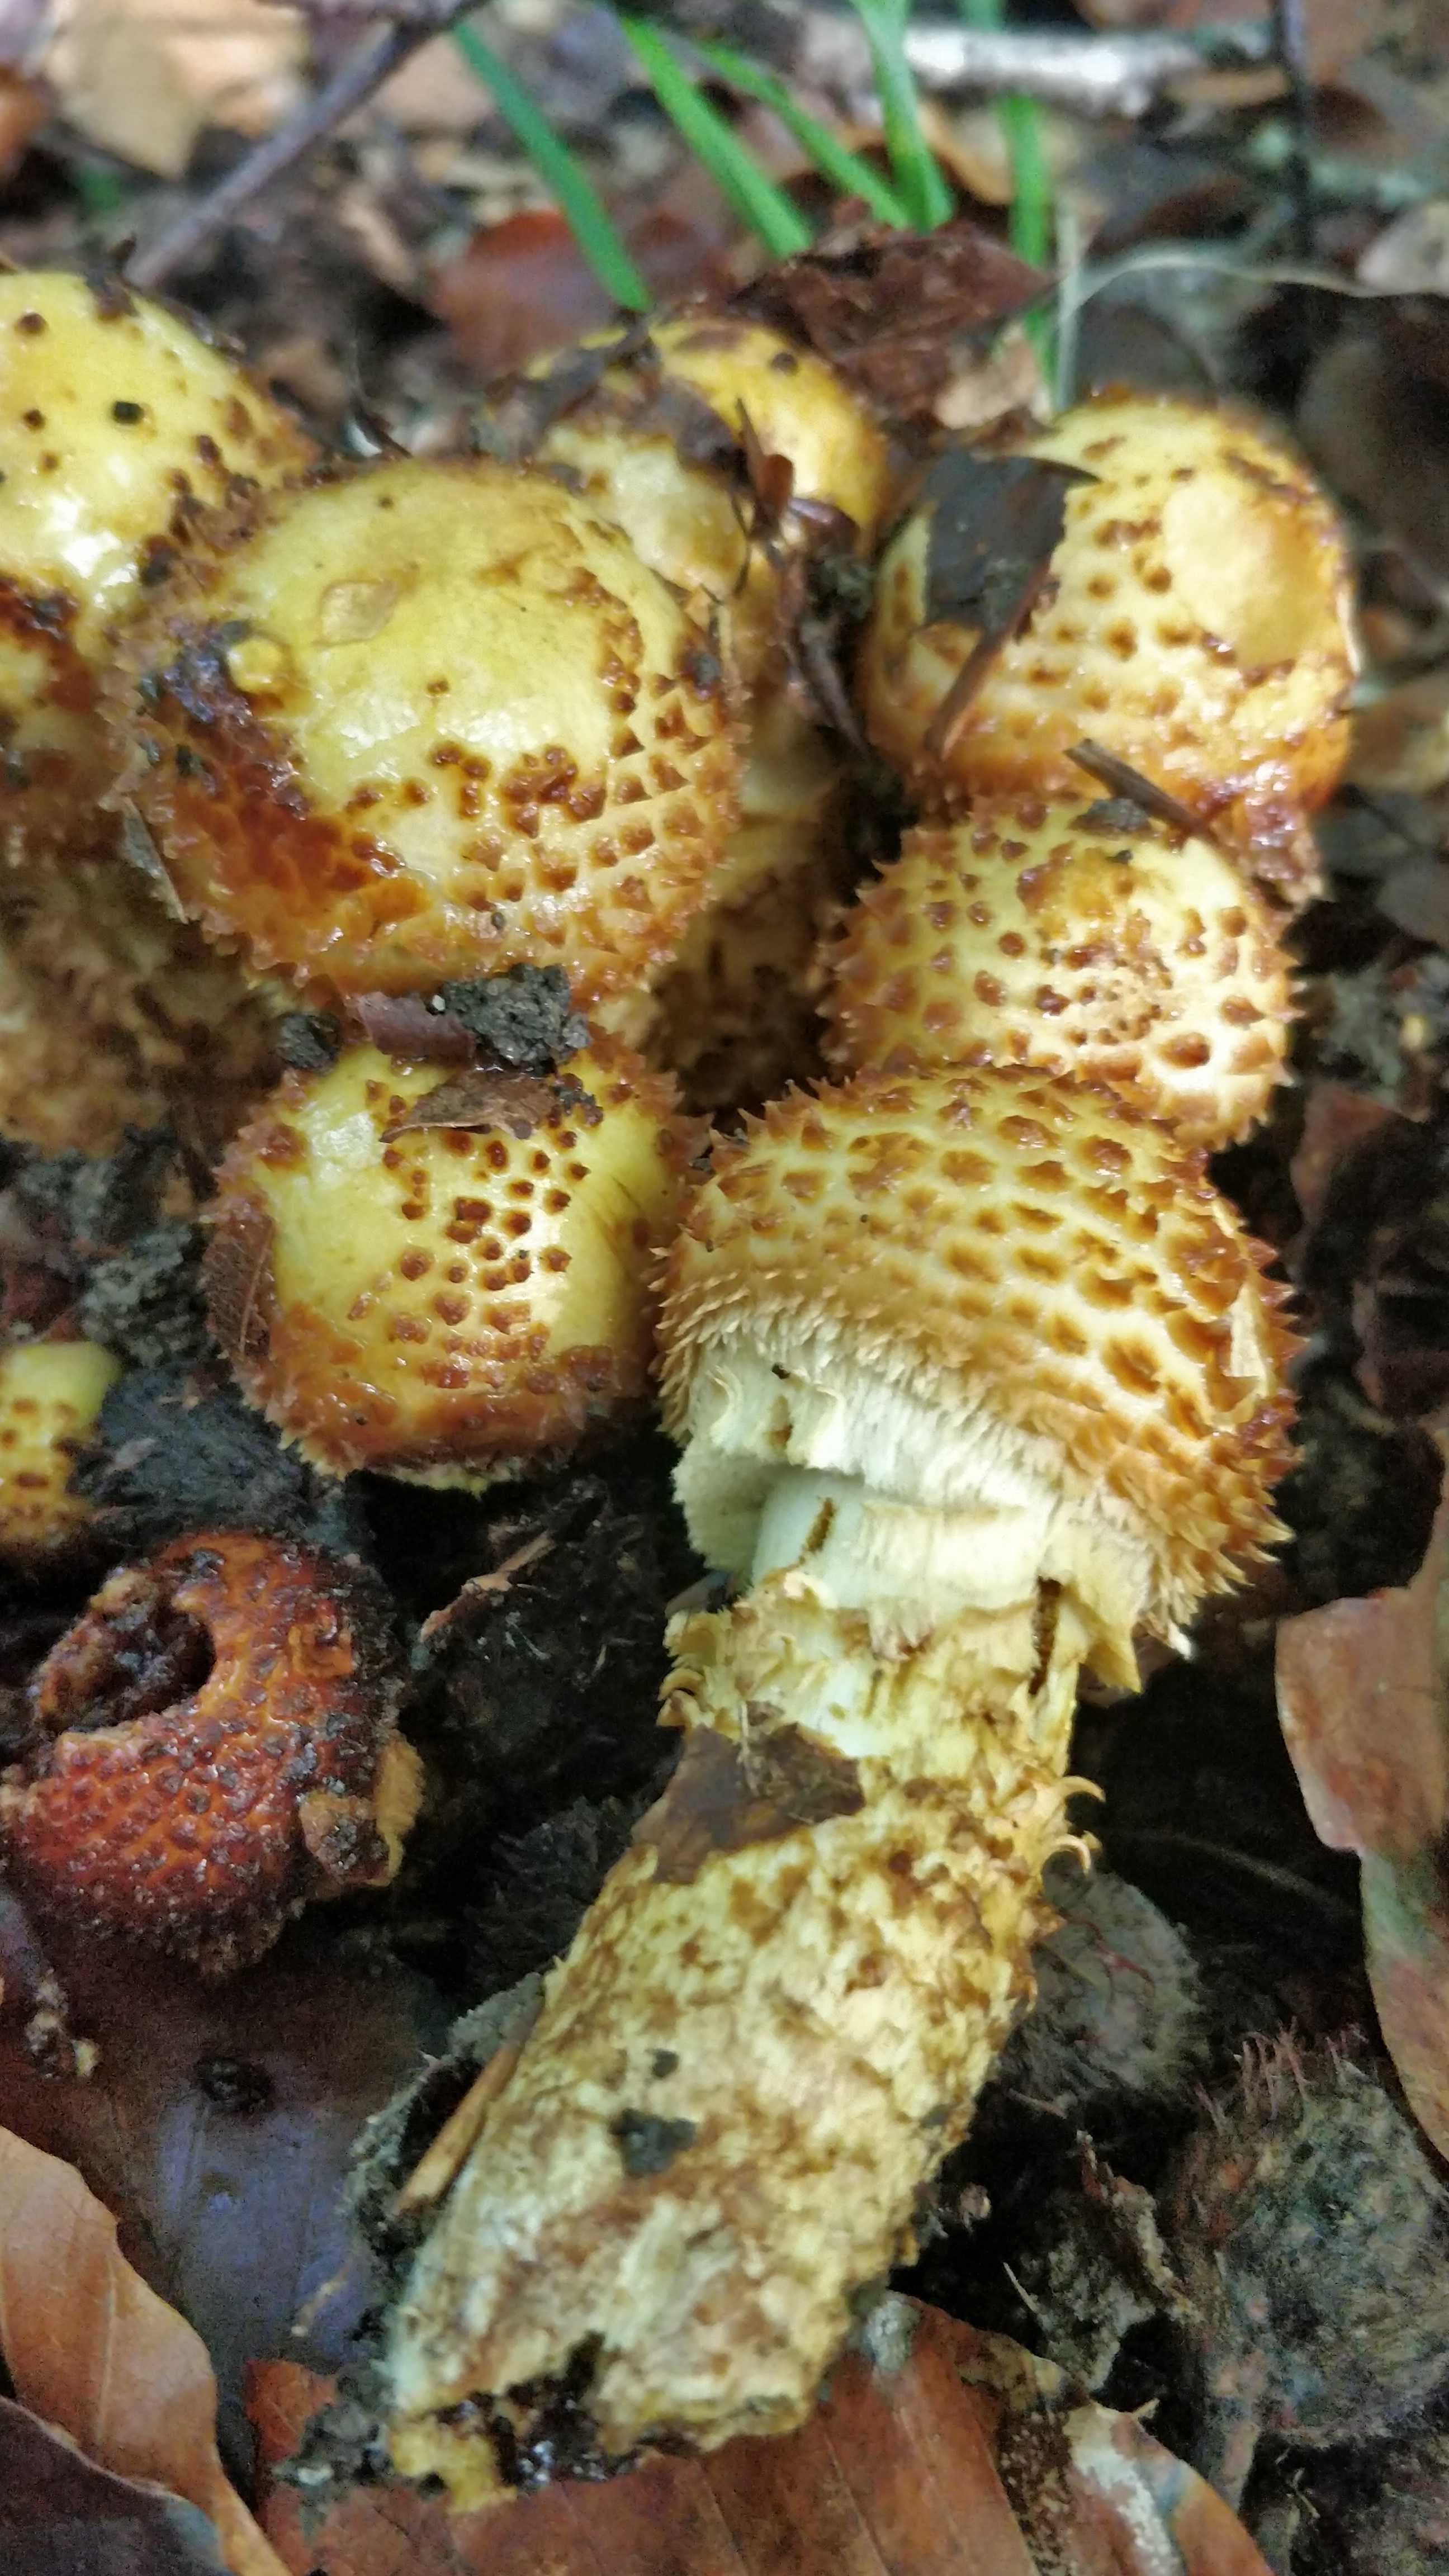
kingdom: Fungi
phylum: Basidiomycota
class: Agaricomycetes
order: Agaricales
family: Strophariaceae
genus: Pholiota
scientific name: Pholiota jahnii
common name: slimet skælhat
